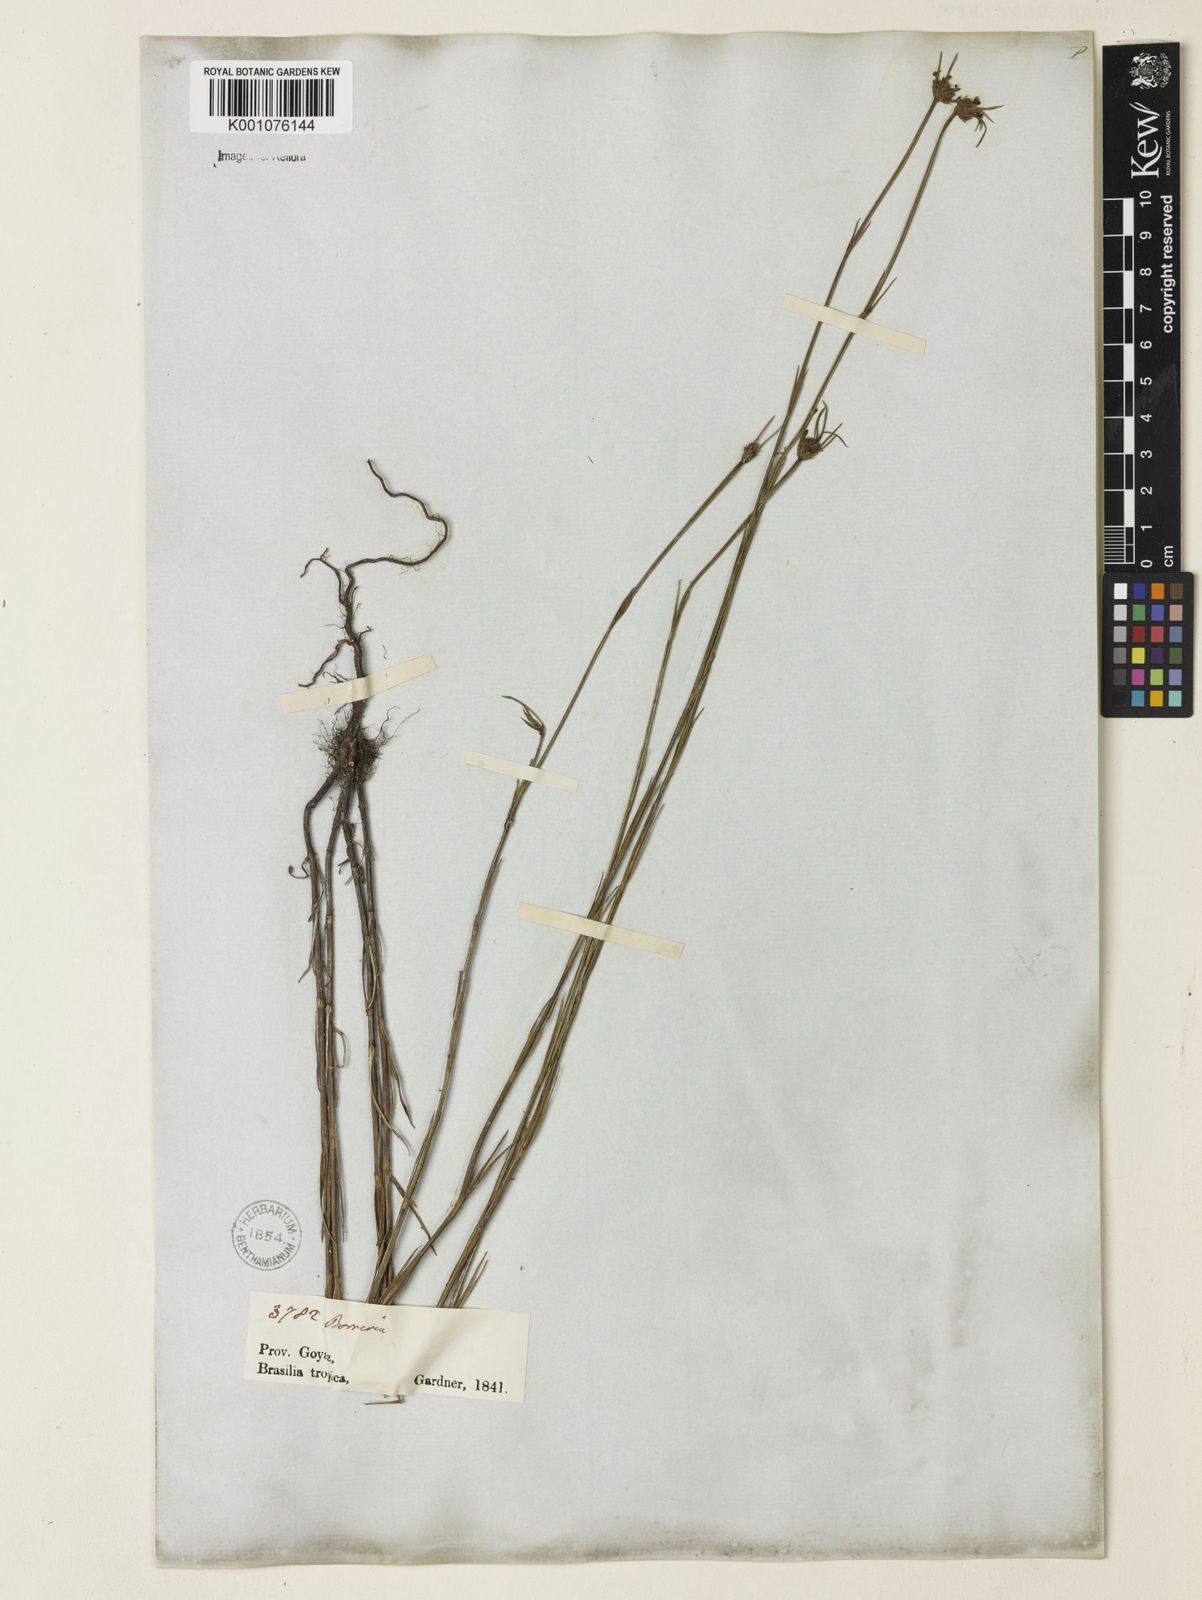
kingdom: Plantae
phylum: Tracheophyta
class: Magnoliopsida
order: Gentianales
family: Rubiaceae
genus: Spermacoce
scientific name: Spermacoce gracillima
